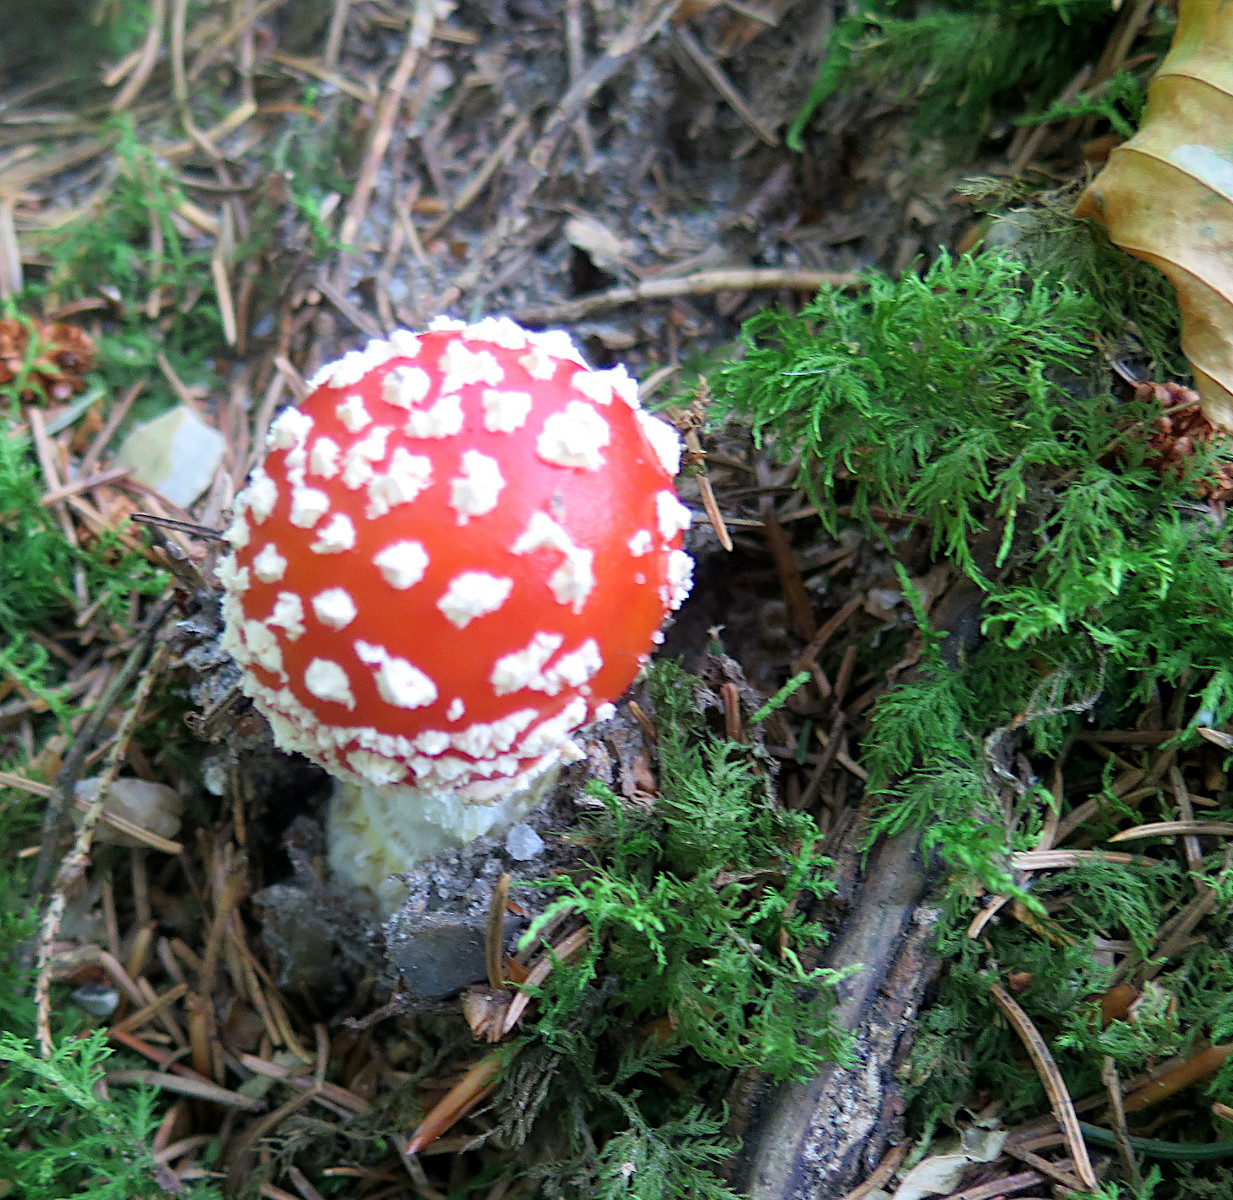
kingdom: Fungi
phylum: Basidiomycota
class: Agaricomycetes
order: Agaricales
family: Amanitaceae
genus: Amanita
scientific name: Amanita muscaria
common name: rød fluesvamp
